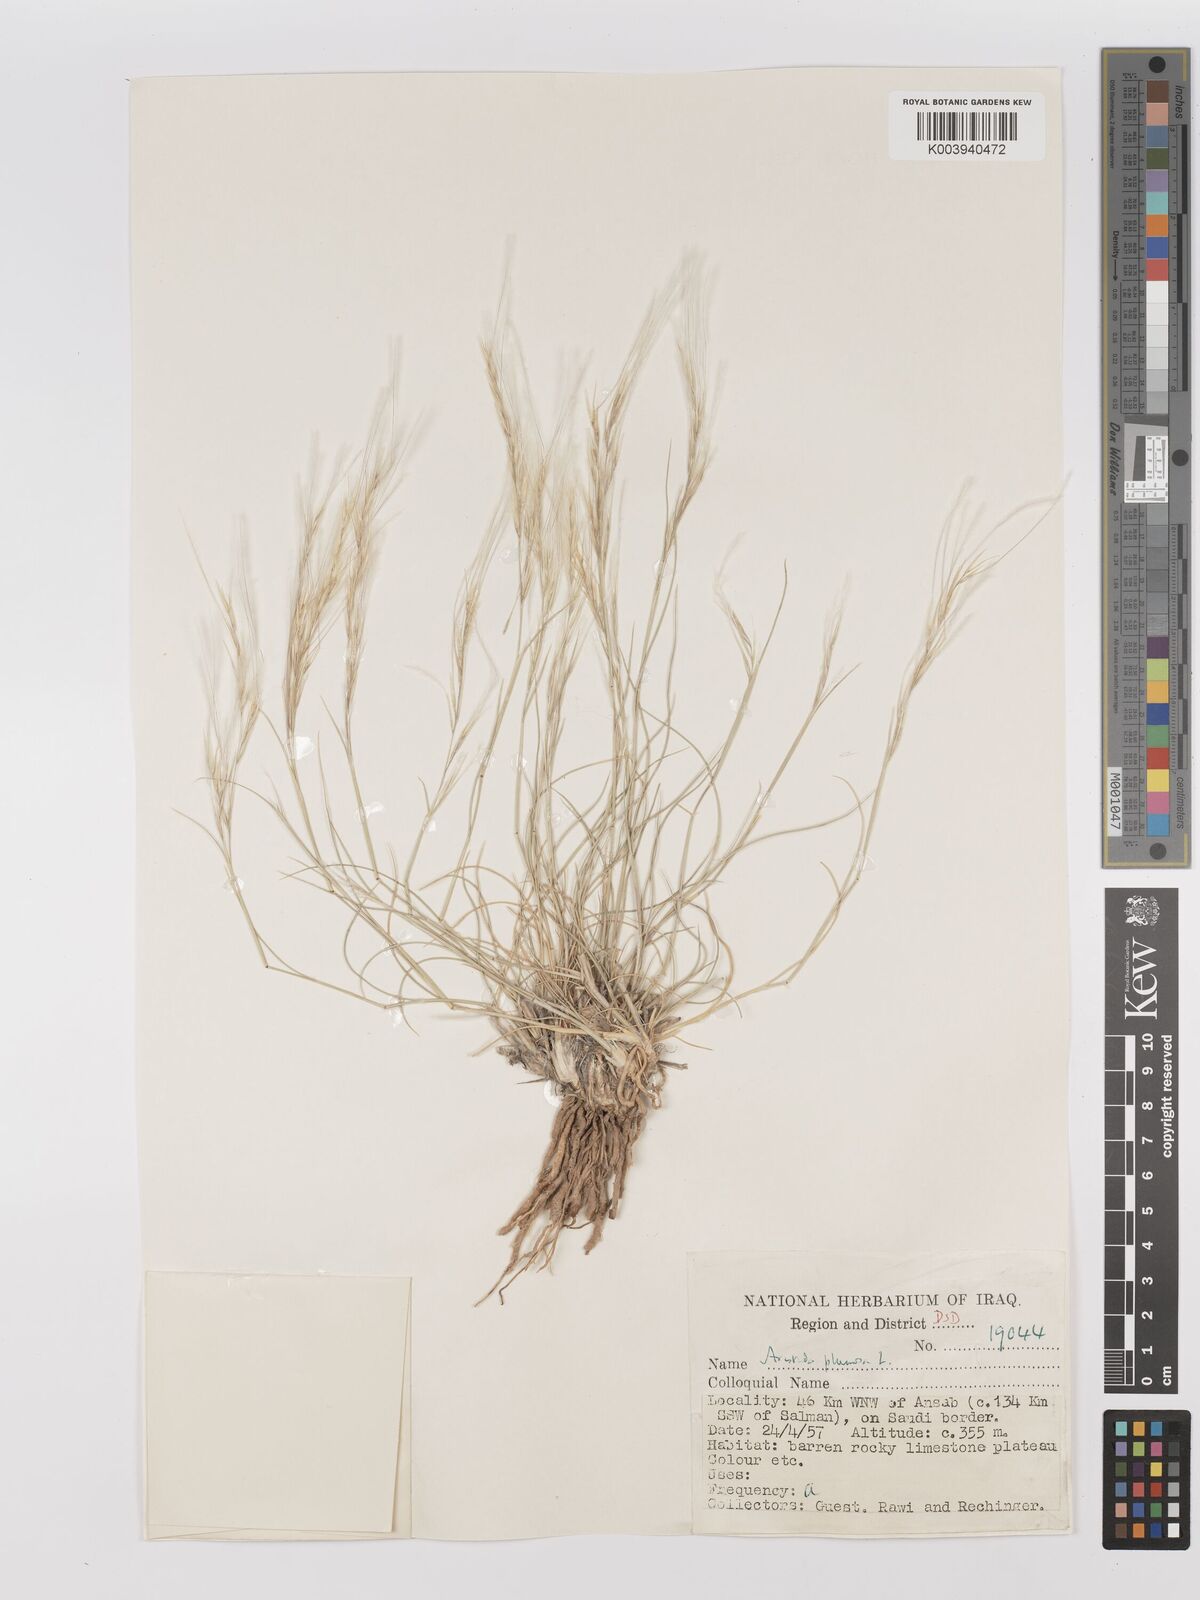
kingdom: Plantae
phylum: Tracheophyta
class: Liliopsida
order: Poales
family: Poaceae
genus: Stipagrostis
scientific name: Stipagrostis plumosa
